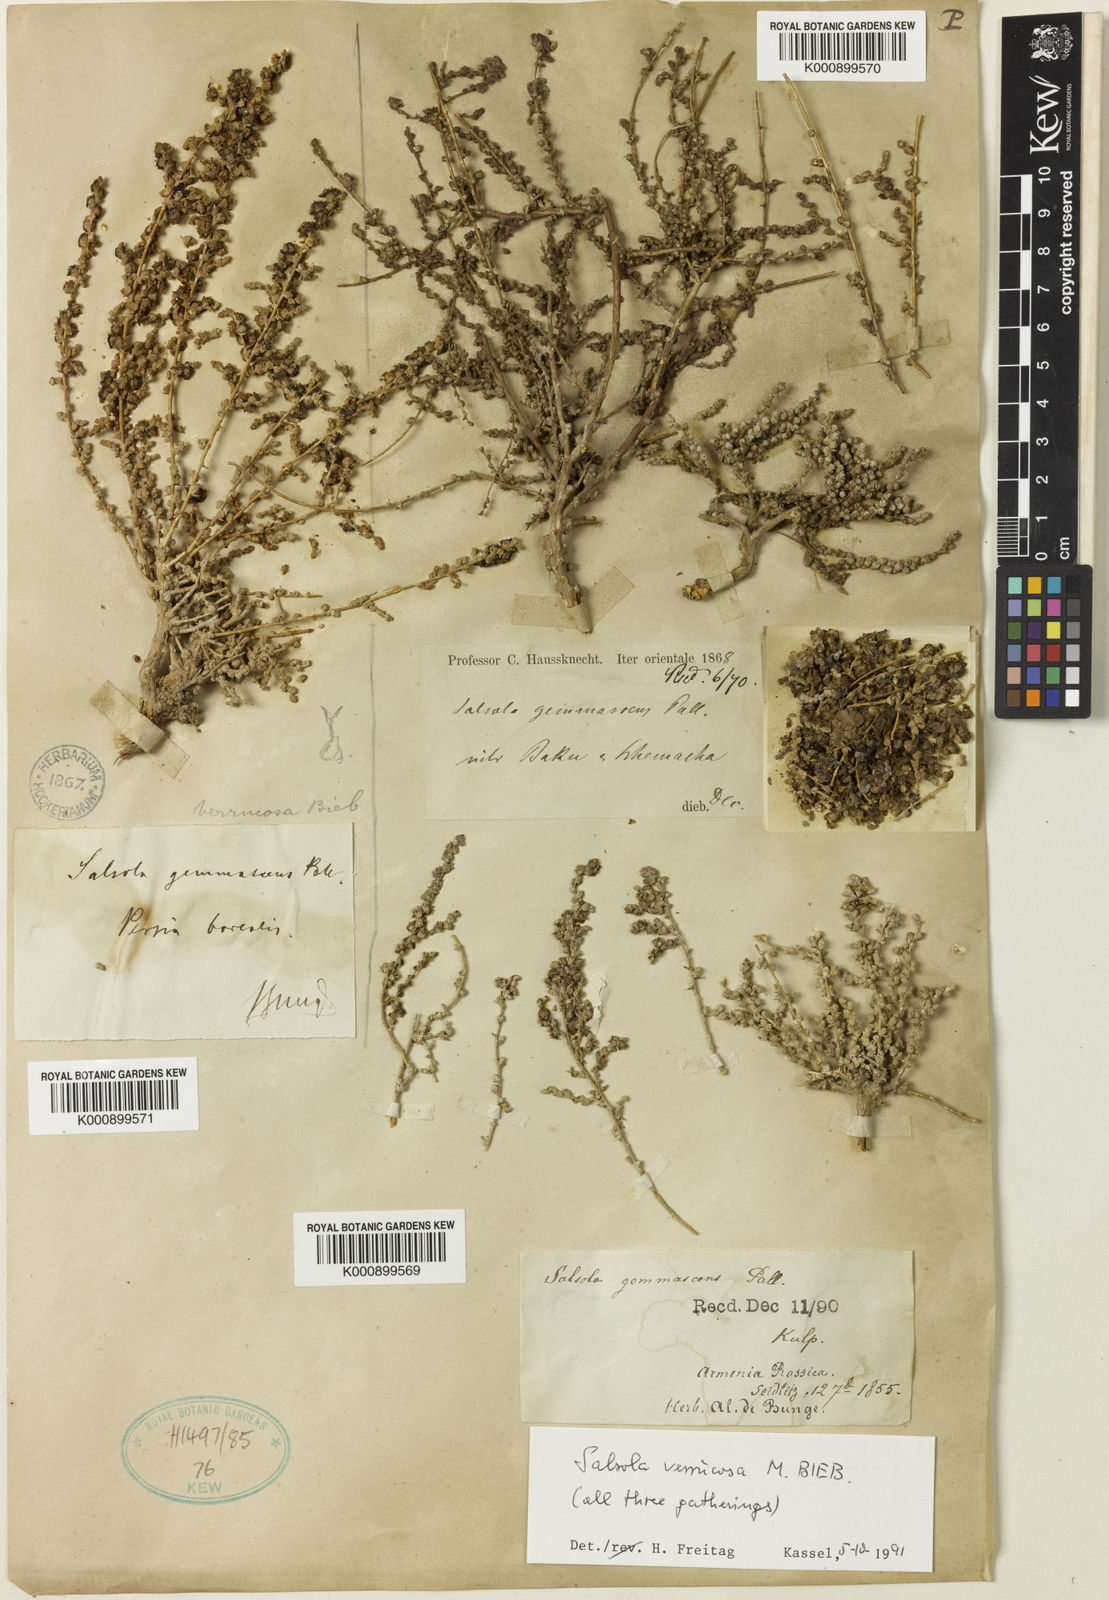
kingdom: Plantae
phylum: Tracheophyta
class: Magnoliopsida
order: Caryophyllales
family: Amaranthaceae
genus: Nitrosalsola
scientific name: Nitrosalsola dendroides
